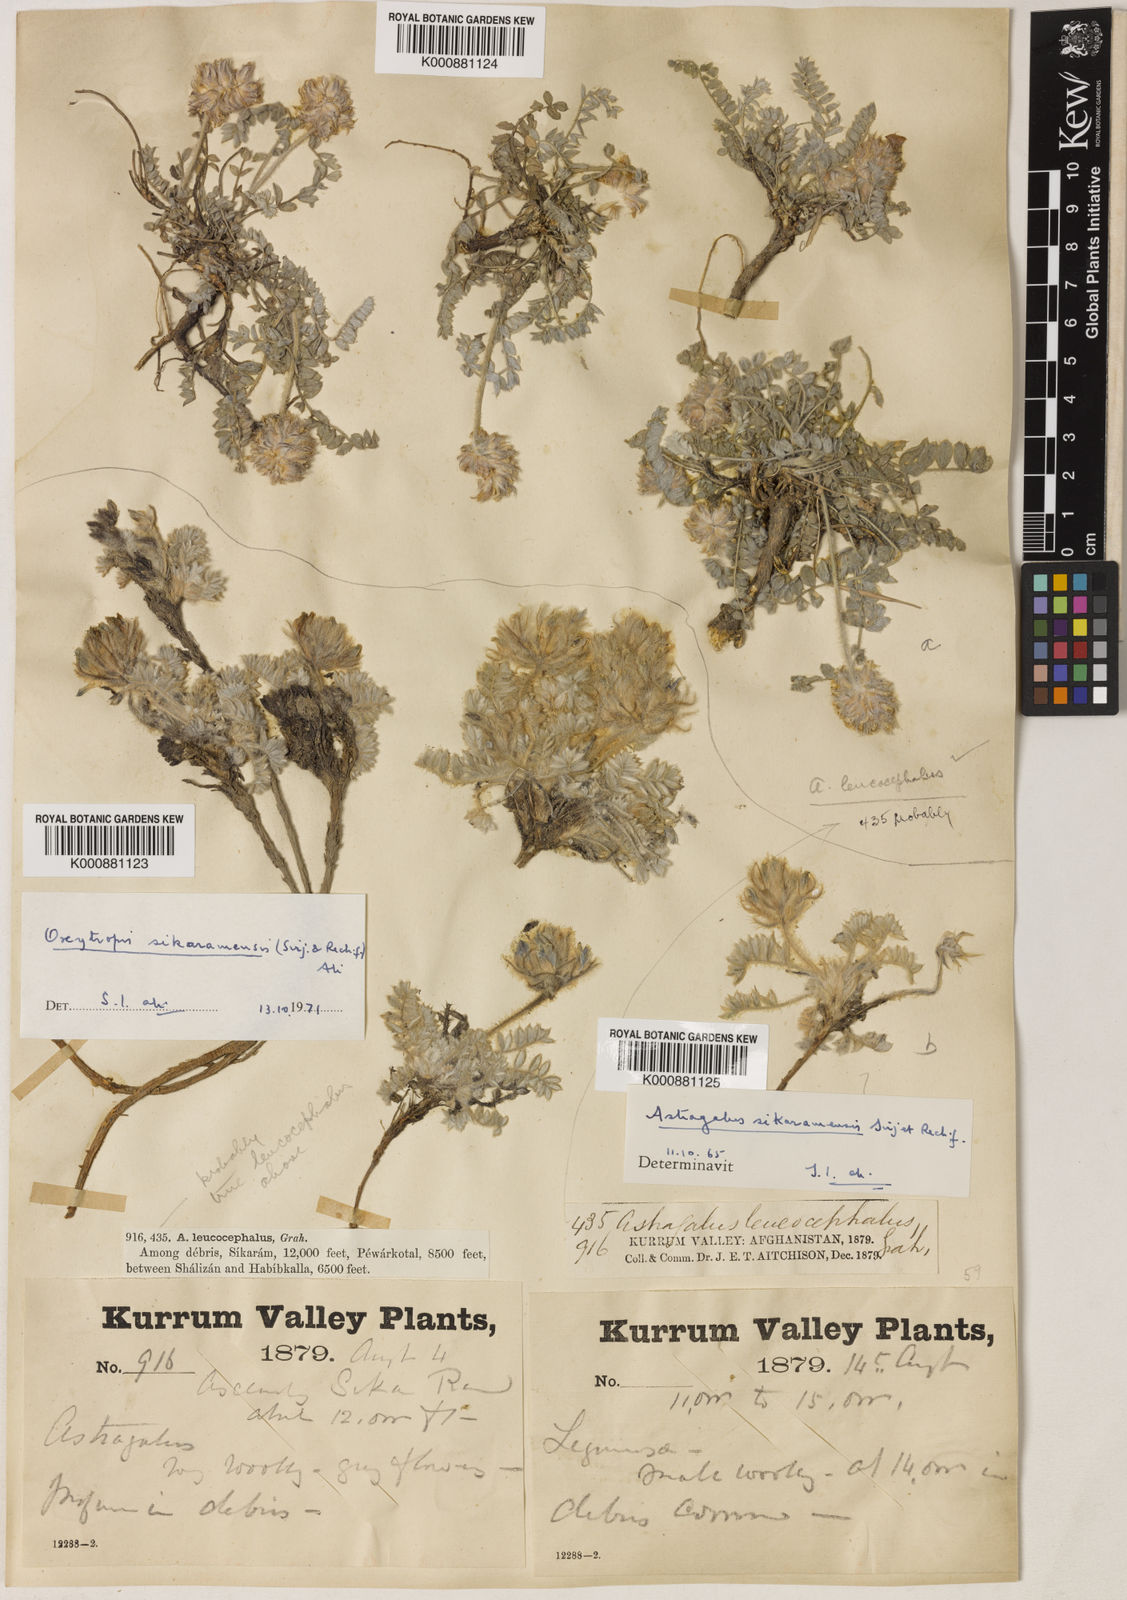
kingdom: Plantae
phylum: Tracheophyta
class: Magnoliopsida
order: Fabales
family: Fabaceae
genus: Oxytropis
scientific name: Oxytropis proxima
